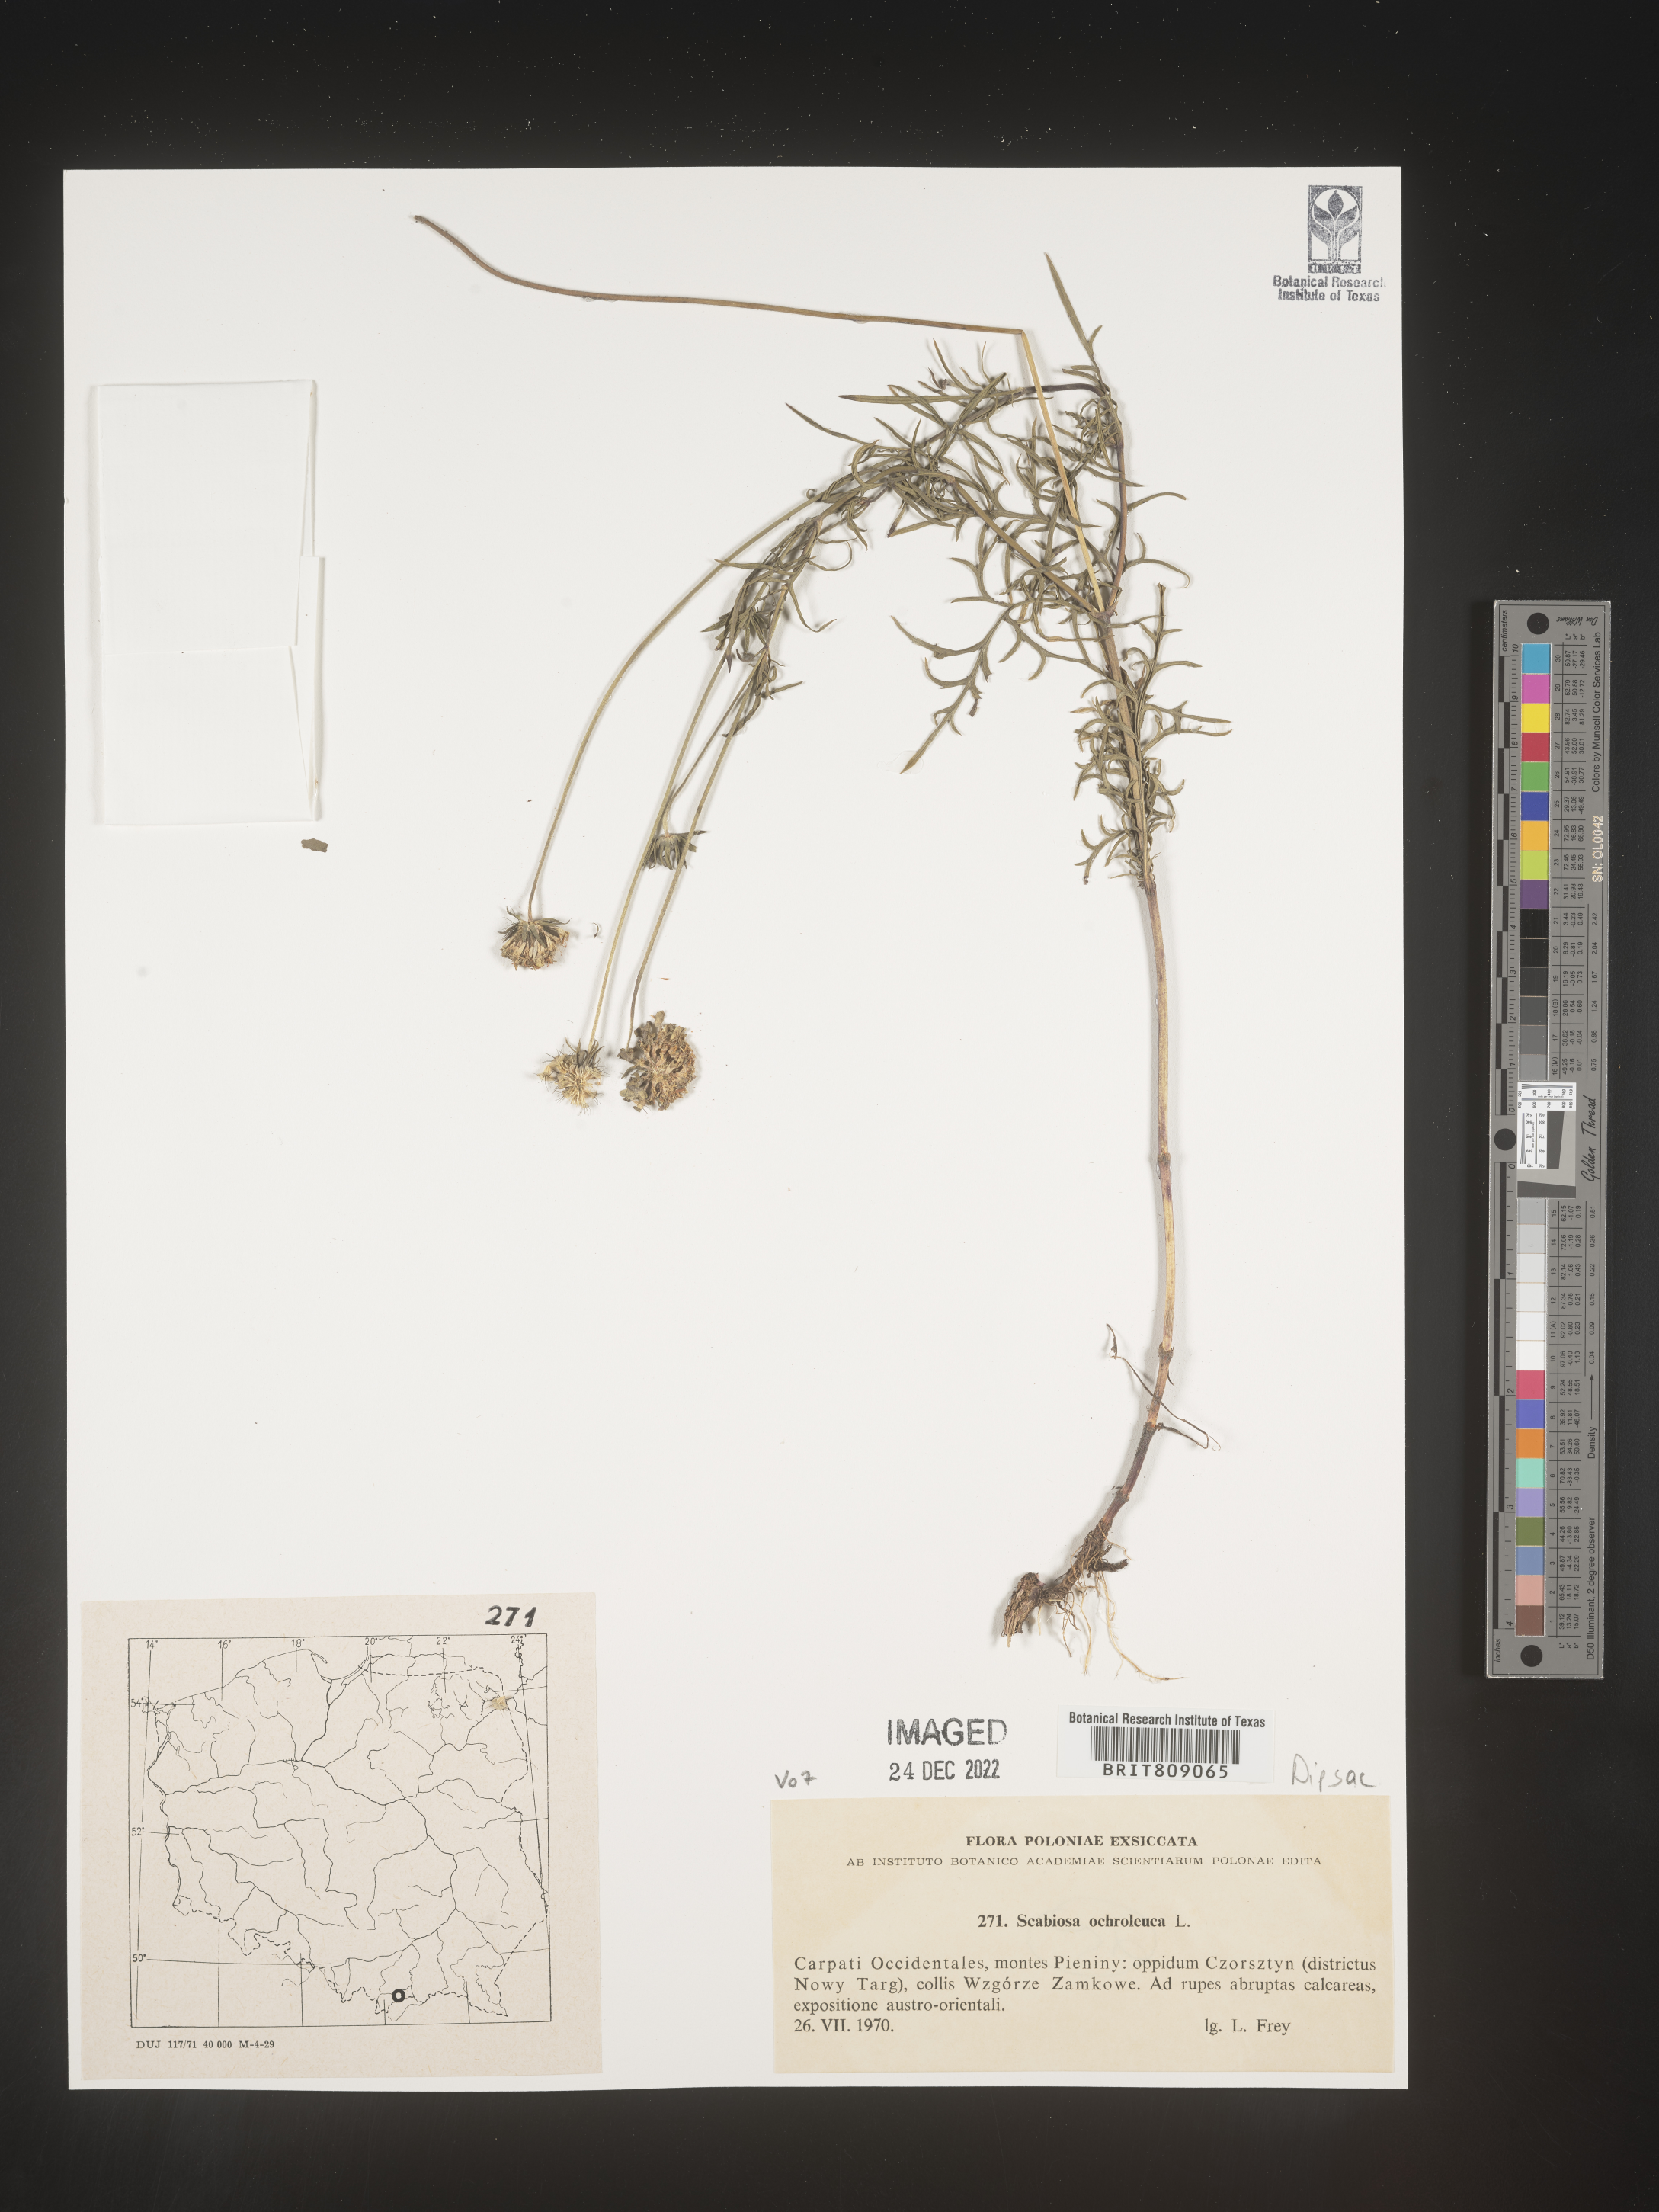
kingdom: Plantae
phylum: Tracheophyta
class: Magnoliopsida
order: Dipsacales
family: Caprifoliaceae
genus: Scabiosa
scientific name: Scabiosa
